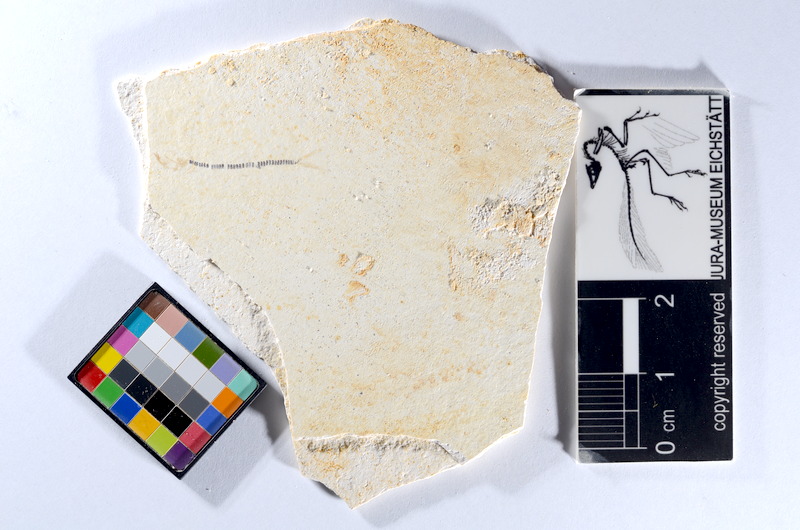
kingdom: Animalia
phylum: Chordata
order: Salmoniformes
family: Orthogonikleithridae
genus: Orthogonikleithrus
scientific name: Orthogonikleithrus hoelli
